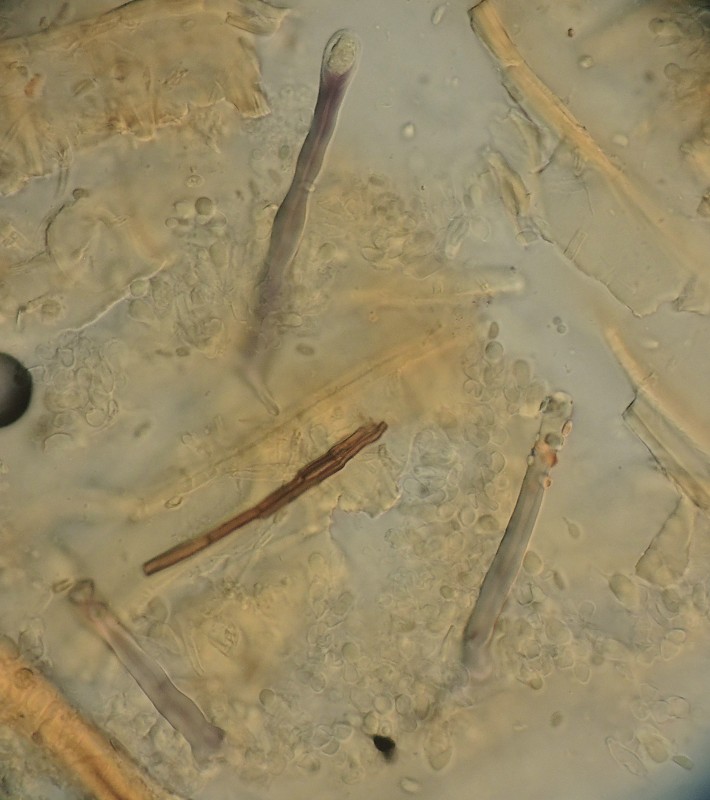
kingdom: Fungi
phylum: Basidiomycota
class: Agaricomycetes
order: Hymenochaetales
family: Hymenochaetaceae
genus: Tubulicrinis
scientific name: Tubulicrinis strangulatus
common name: stranguleret nålehinde
